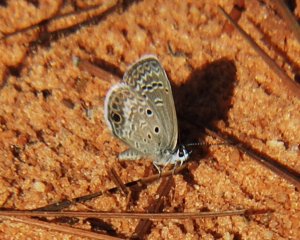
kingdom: Animalia
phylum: Arthropoda
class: Insecta
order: Lepidoptera
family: Lycaenidae
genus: Hemiargus
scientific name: Hemiargus ceraunus
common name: Ceraunus Blue
